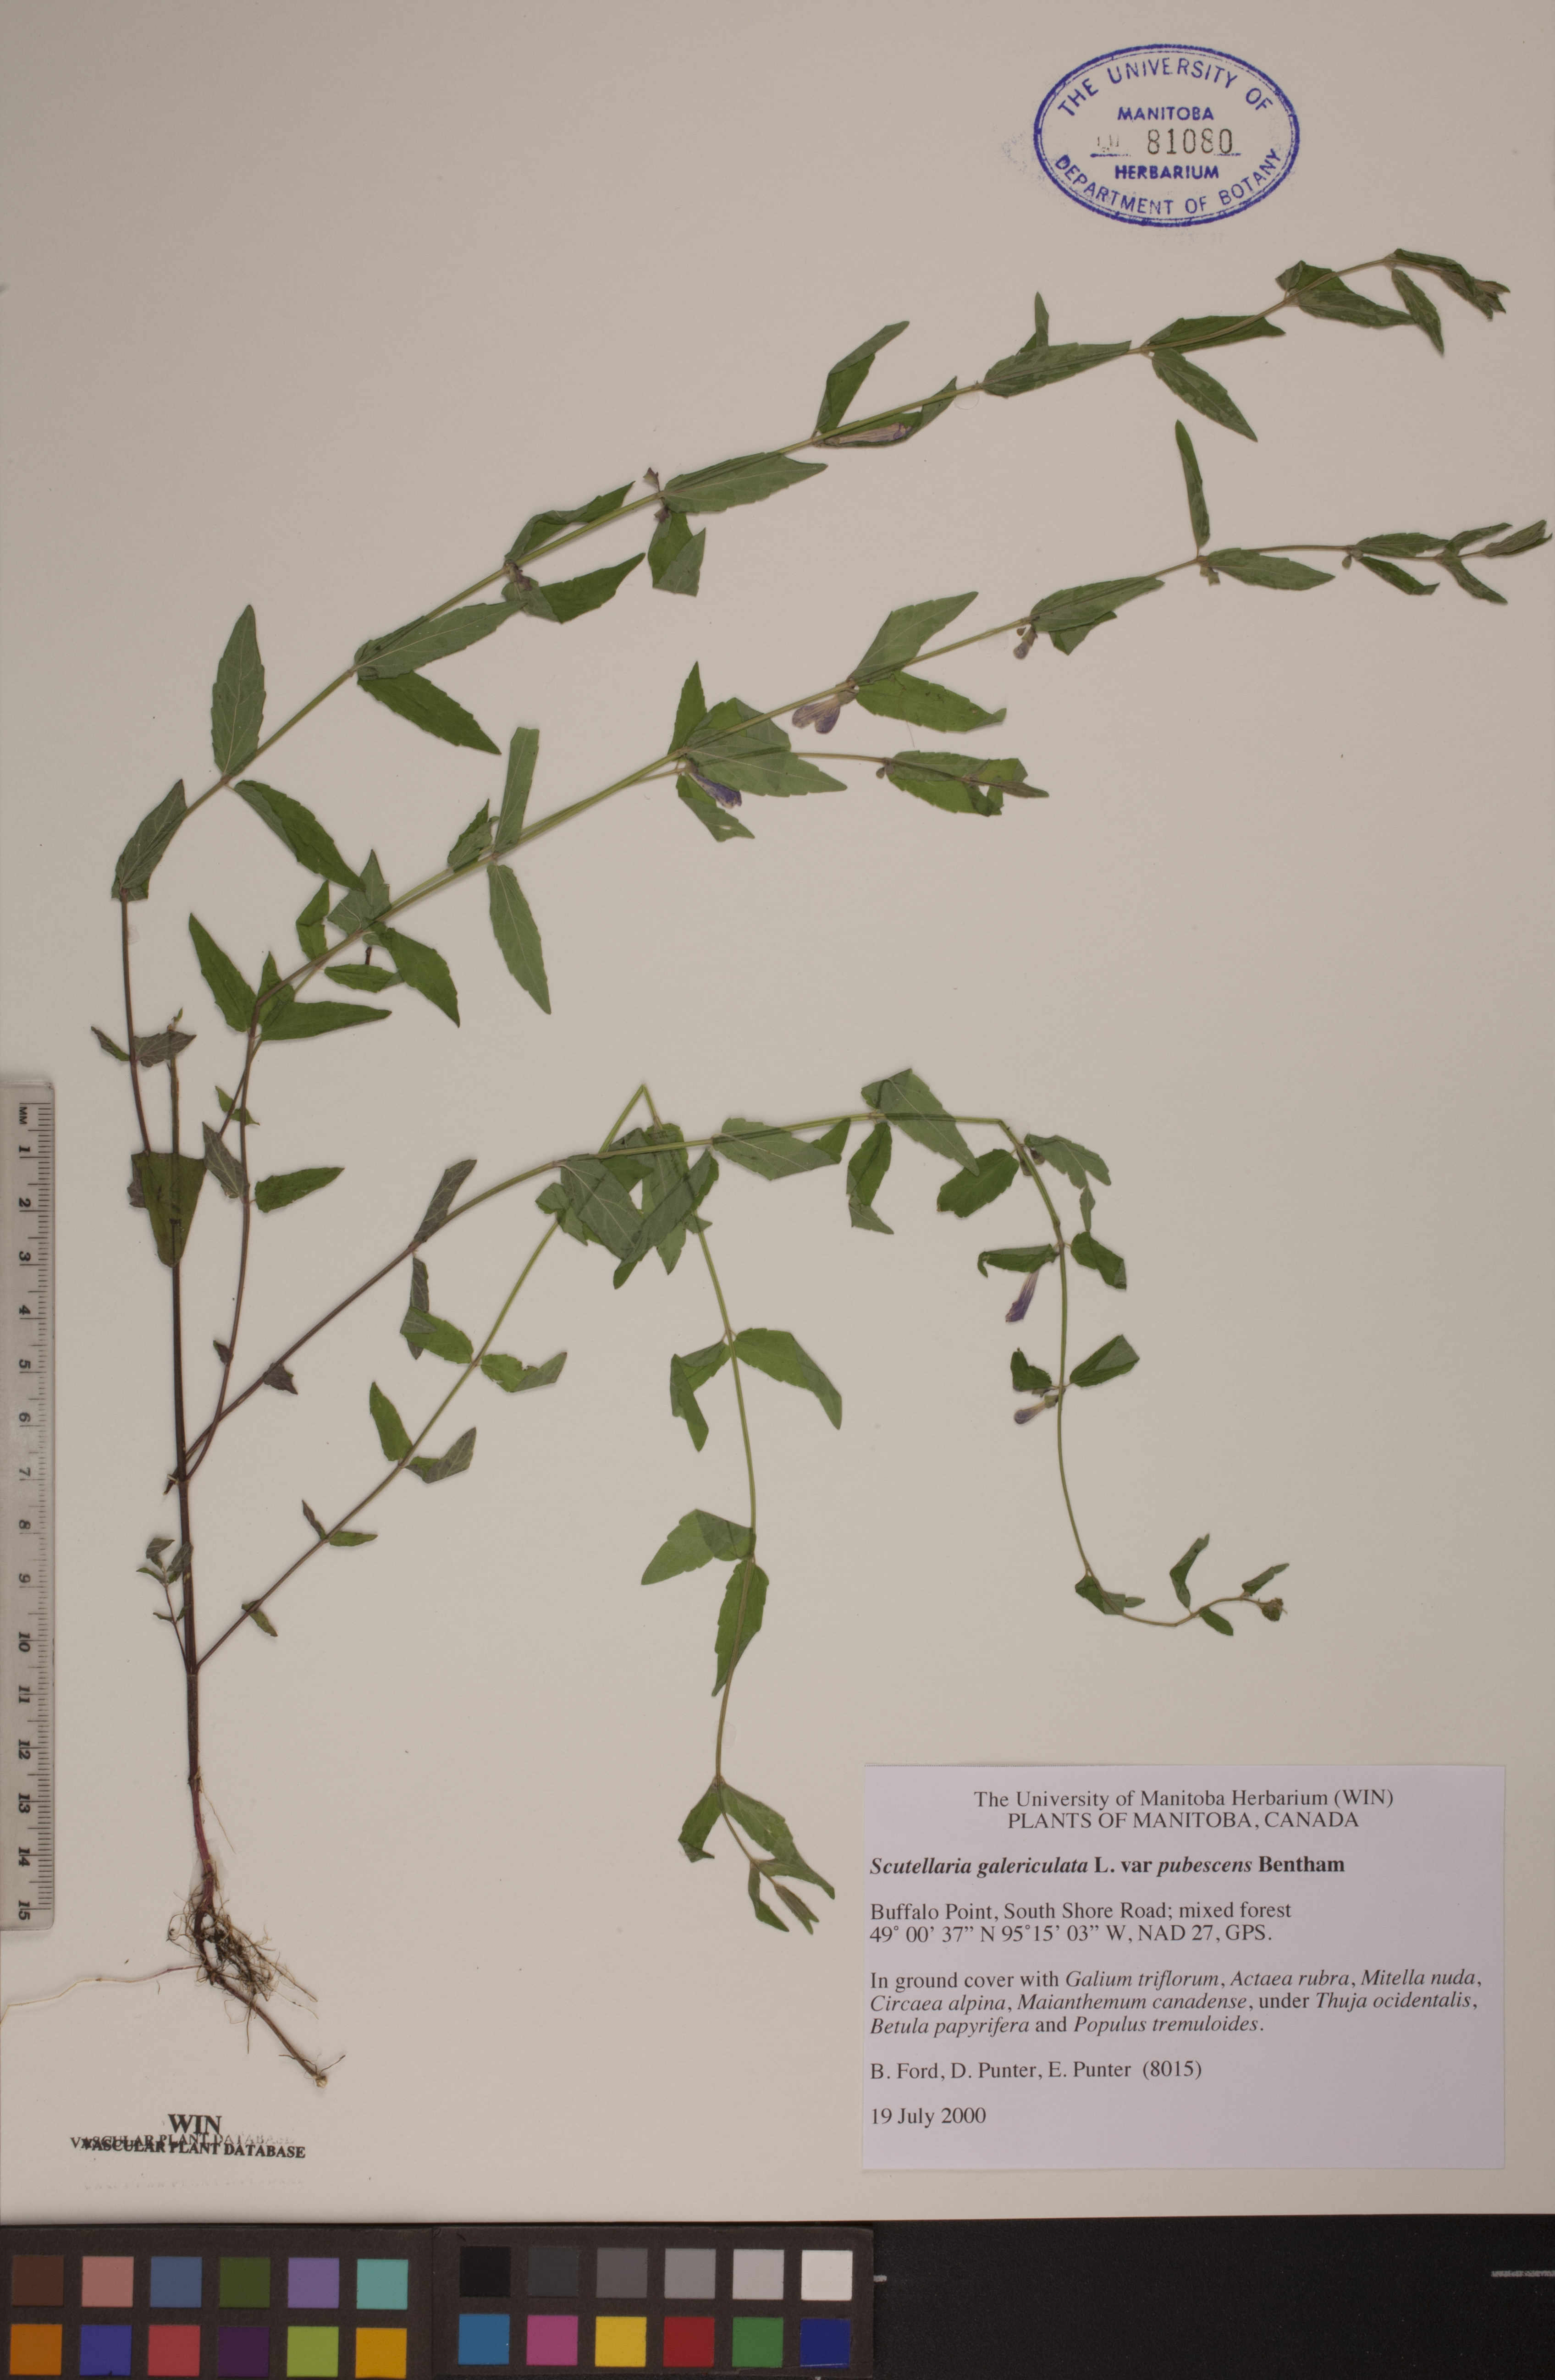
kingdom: Plantae
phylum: Tracheophyta
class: Magnoliopsida
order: Lamiales
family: Lamiaceae
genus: Scutellaria
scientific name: Scutellaria galericulata
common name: Skullcap
